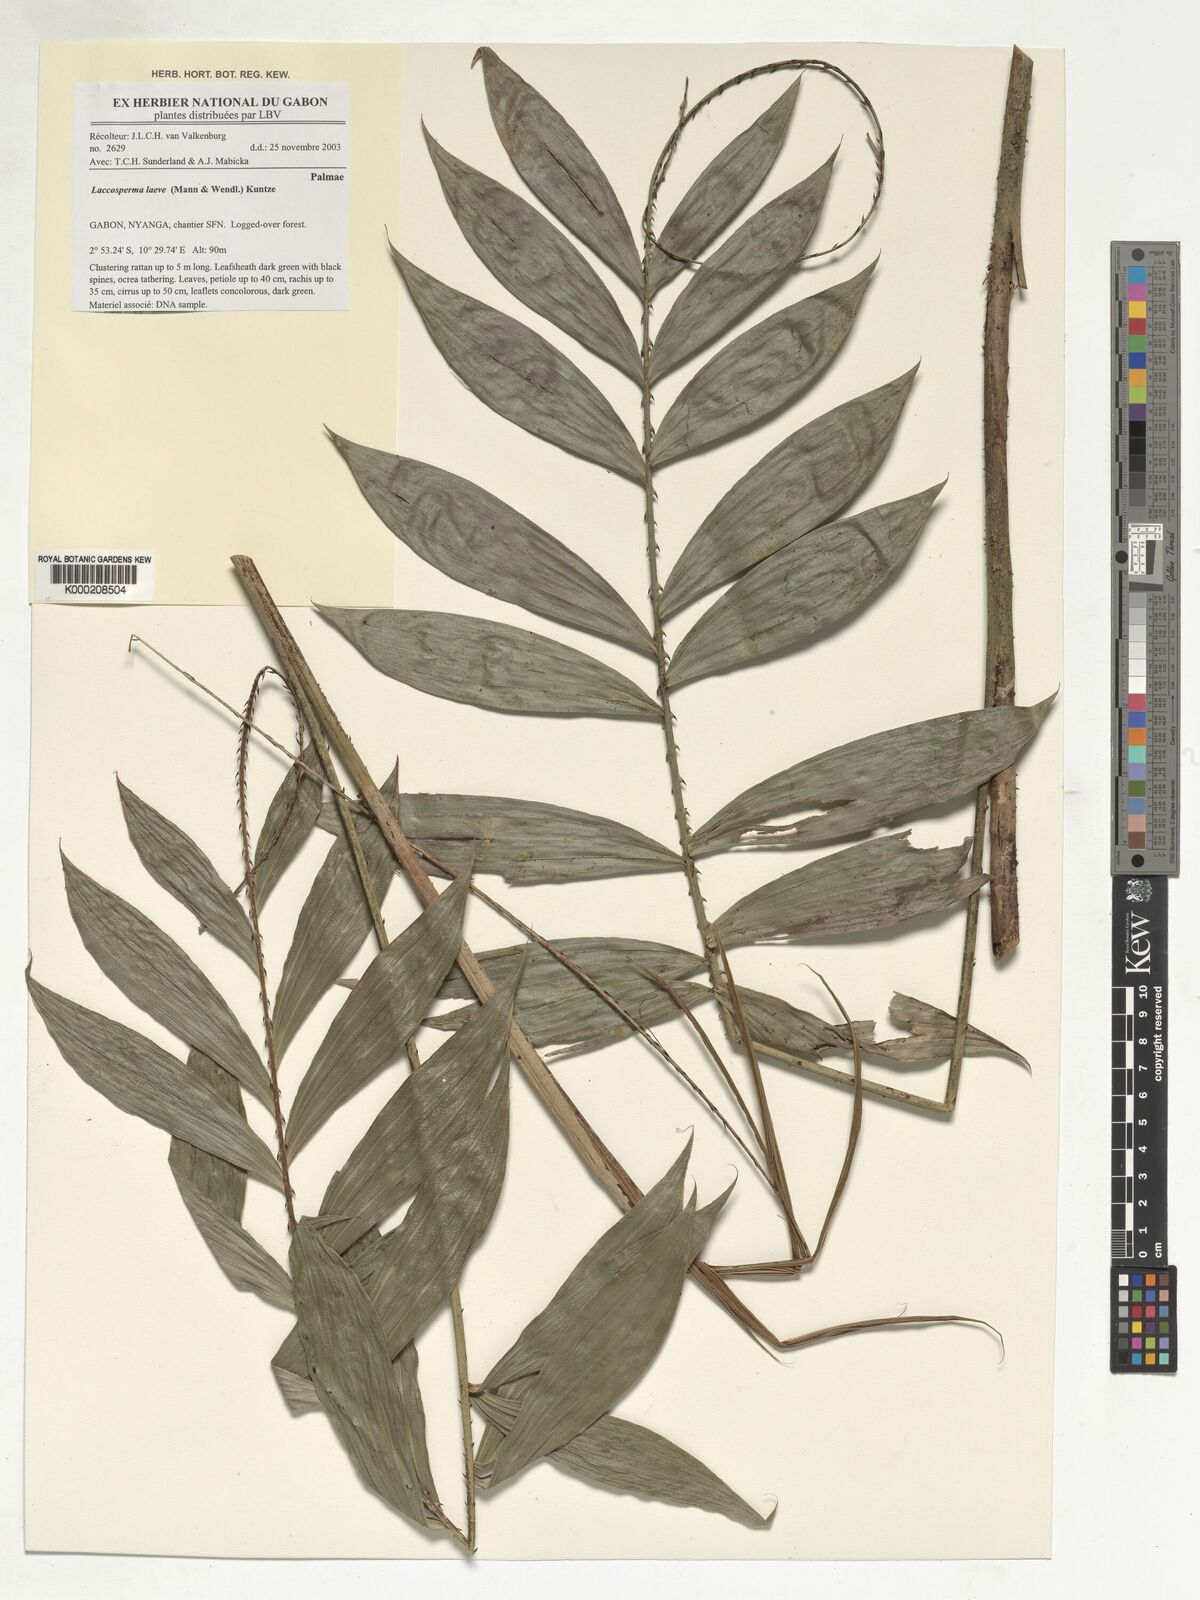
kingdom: Plantae
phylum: Tracheophyta
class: Liliopsida
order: Arecales
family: Arecaceae
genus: Laccosperma
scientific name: Laccosperma laeve
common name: Rattan
